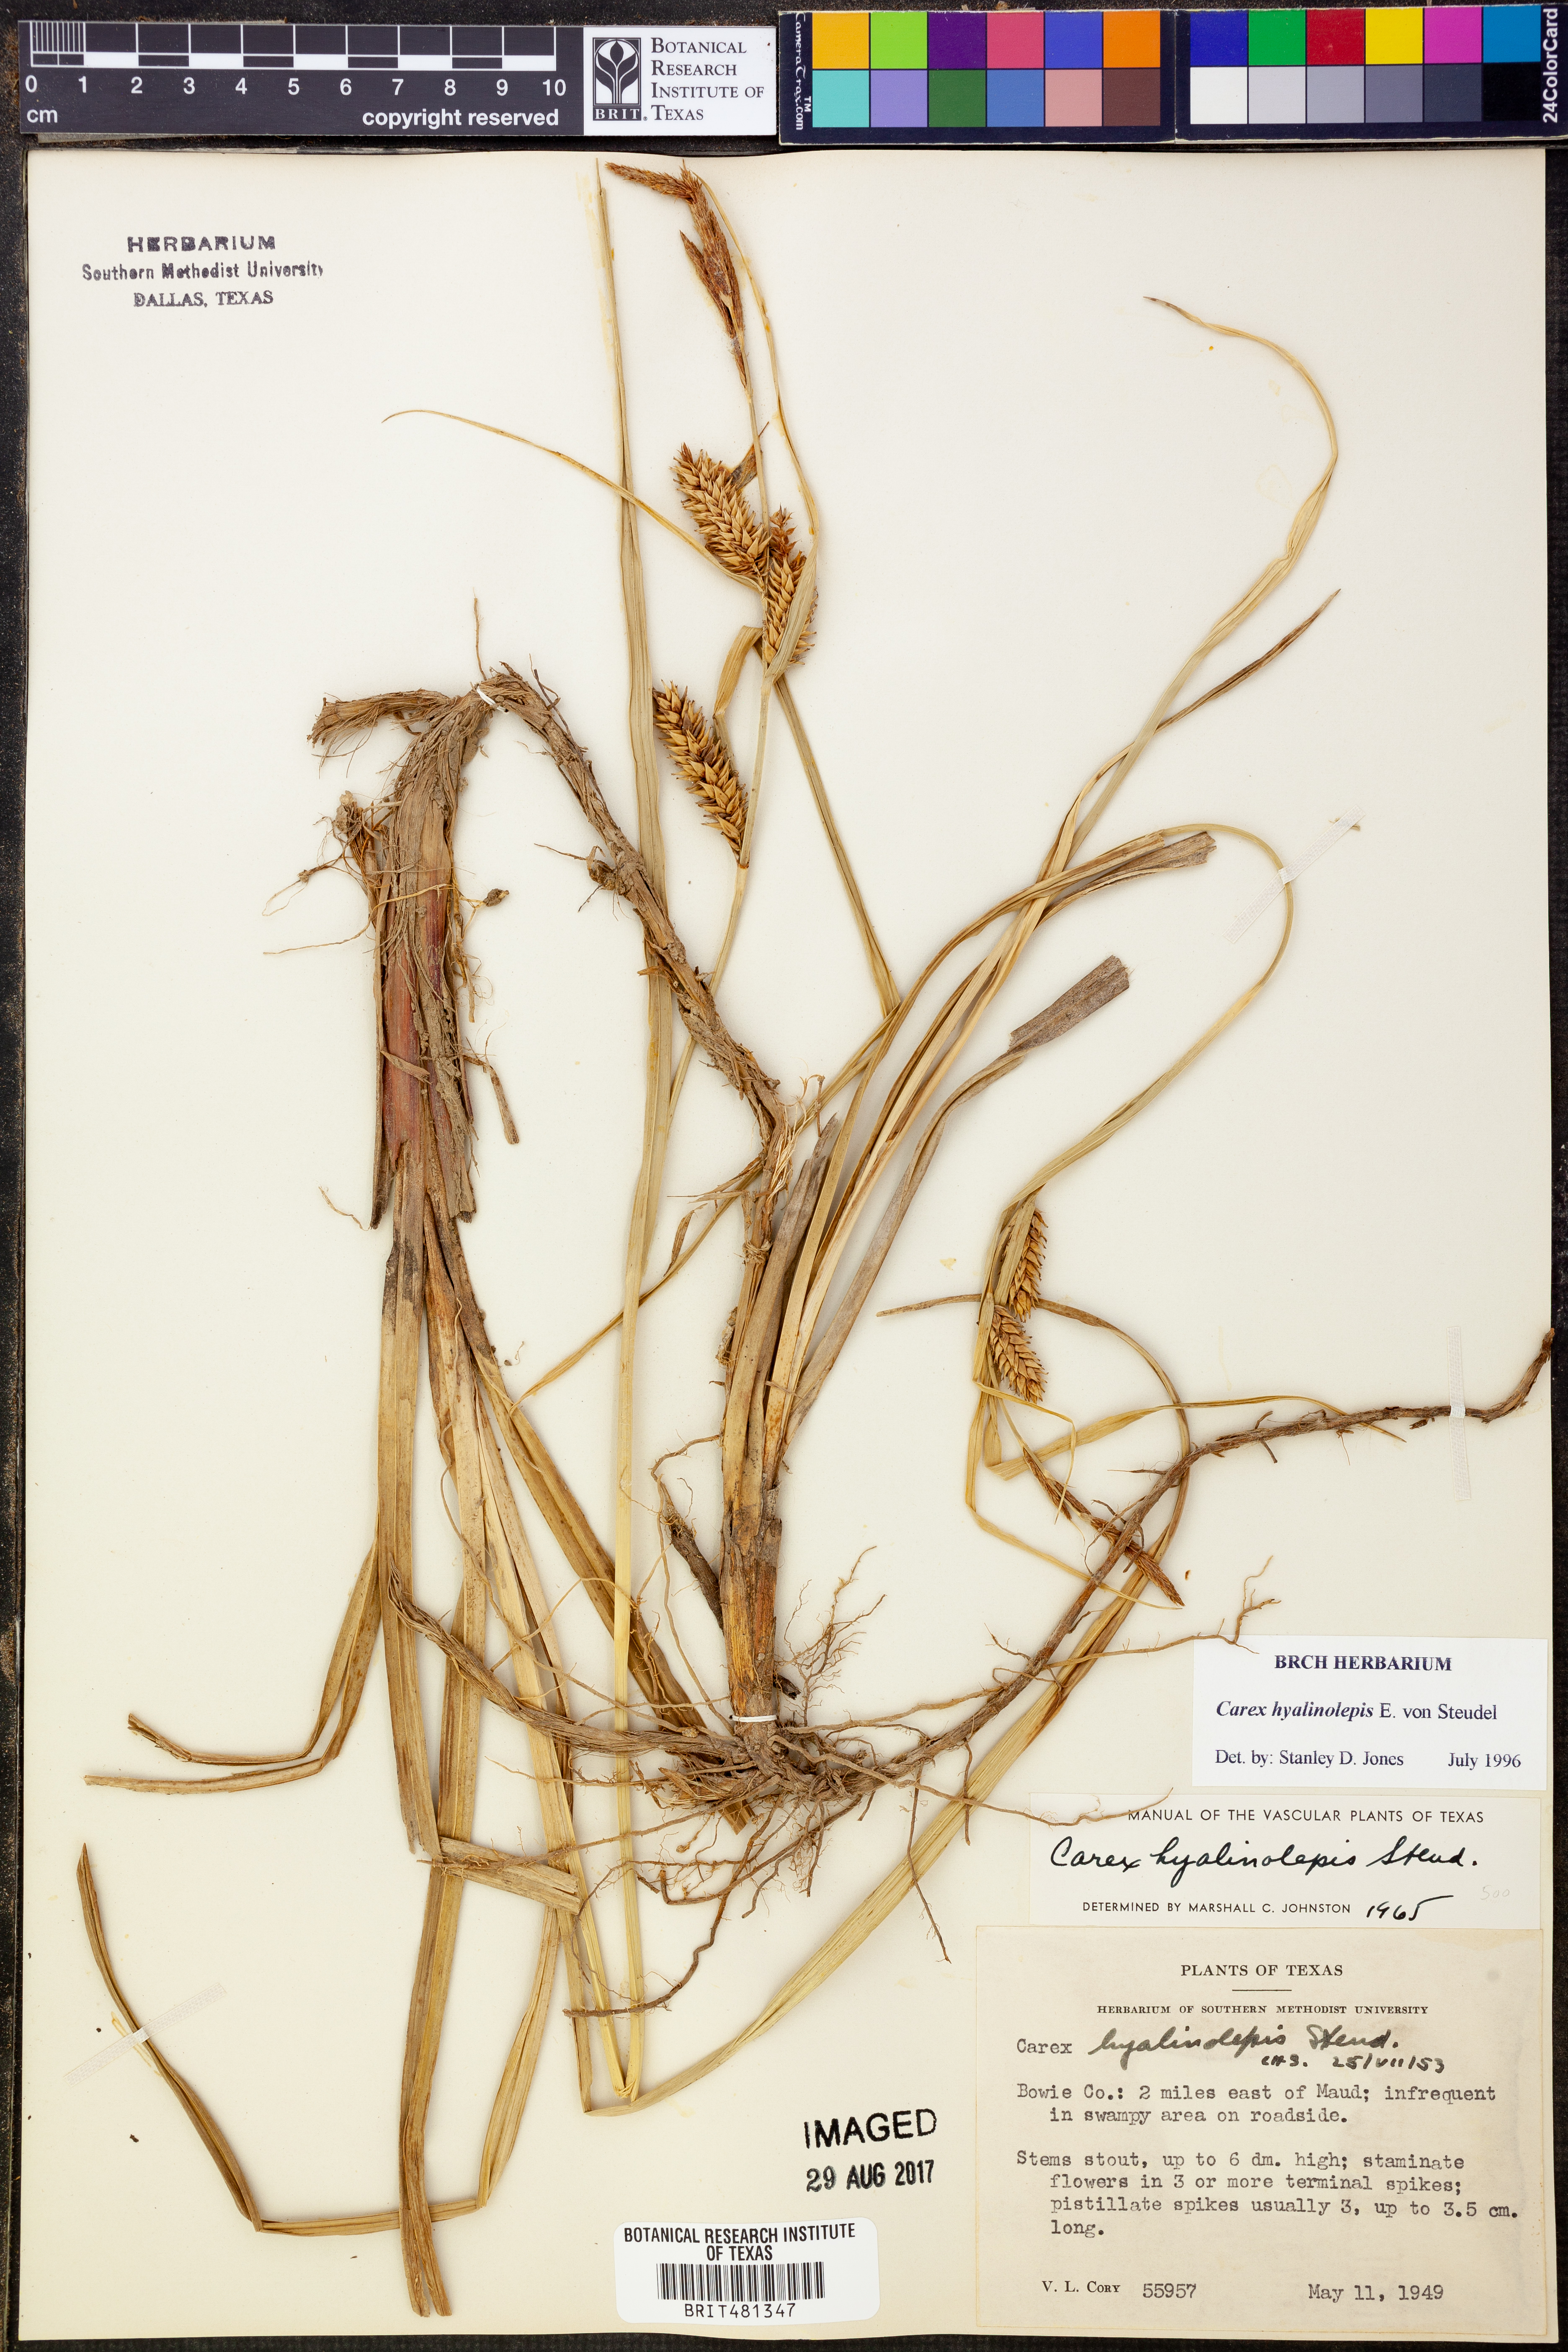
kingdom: Plantae
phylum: Tracheophyta
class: Liliopsida
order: Poales
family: Cyperaceae
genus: Carex
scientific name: Carex hyalinolepis
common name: Shoreline sedge
